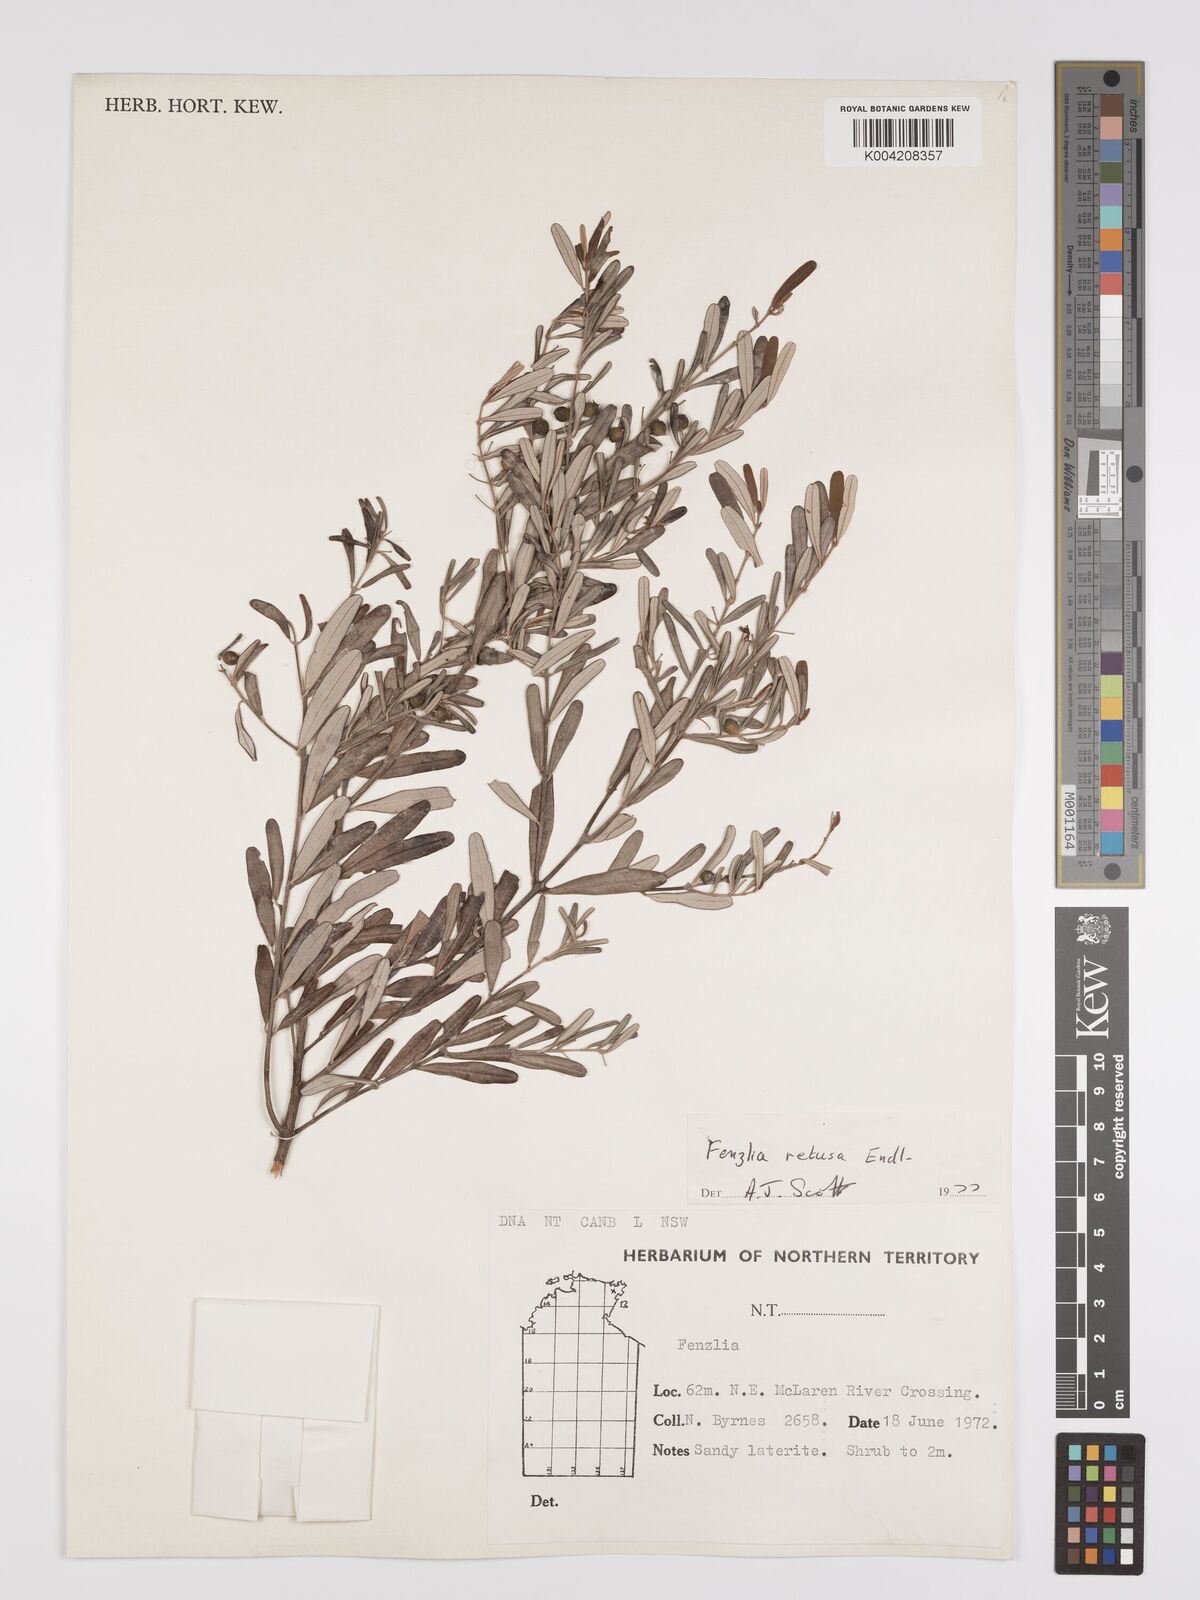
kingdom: Plantae
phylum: Tracheophyta
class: Magnoliopsida
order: Myrtales
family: Myrtaceae
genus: Lithomyrtus
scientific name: Lithomyrtus retusa
